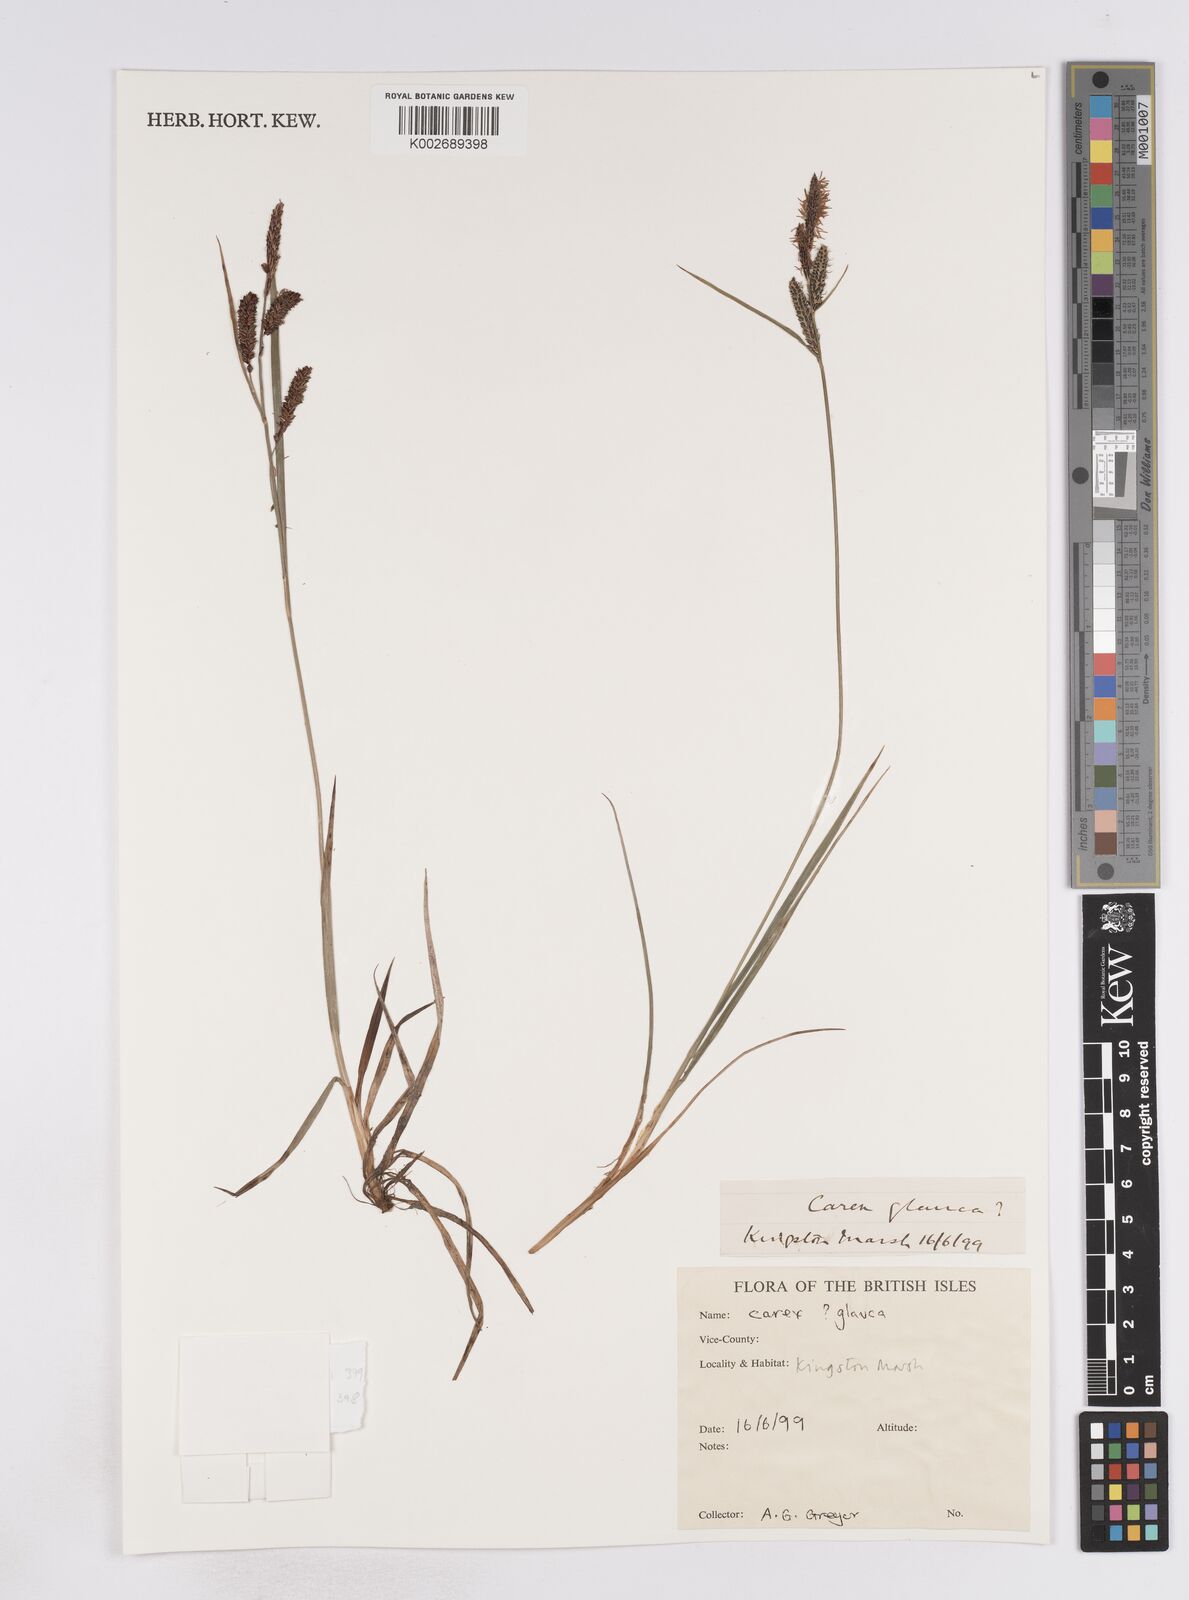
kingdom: Plantae
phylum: Tracheophyta
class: Liliopsida
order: Poales
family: Cyperaceae
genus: Carex
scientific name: Carex flacca
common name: Glaucous sedge
